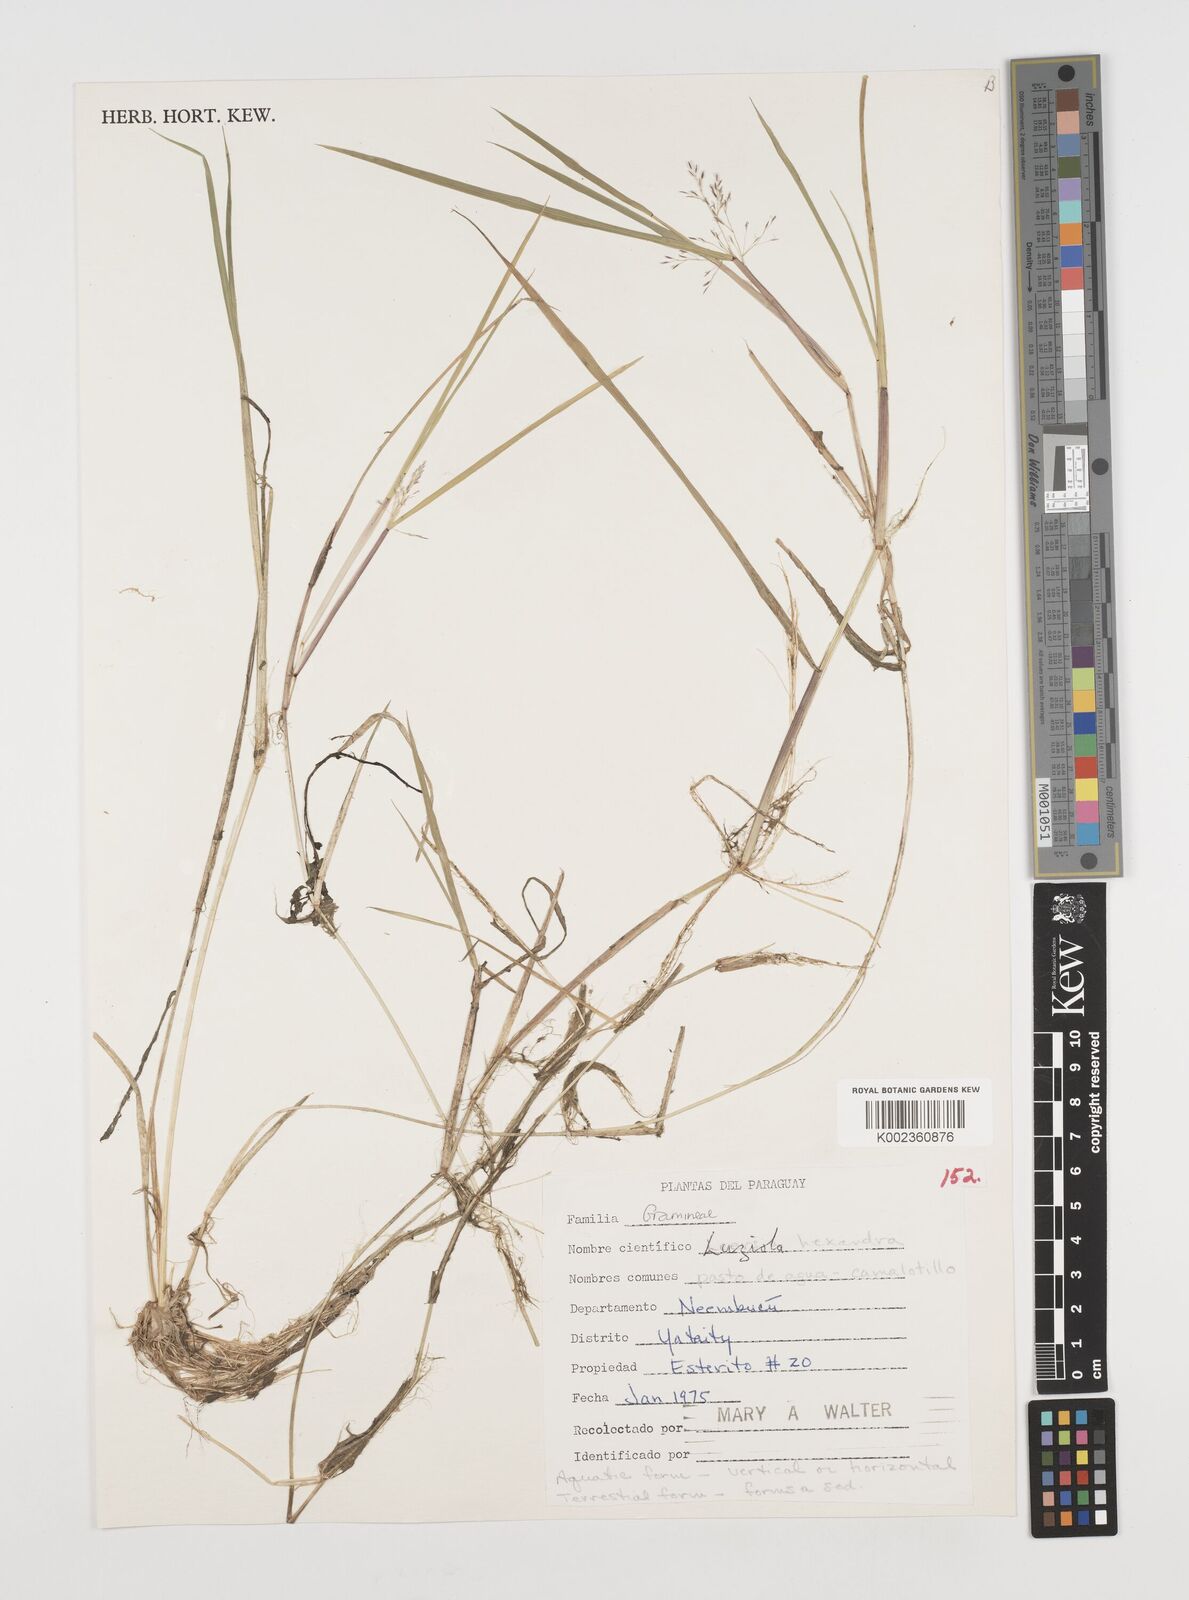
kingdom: Plantae
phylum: Tracheophyta
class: Liliopsida
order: Poales
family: Poaceae
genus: Luziola
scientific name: Luziola peruviana
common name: Peruvian watergrass
